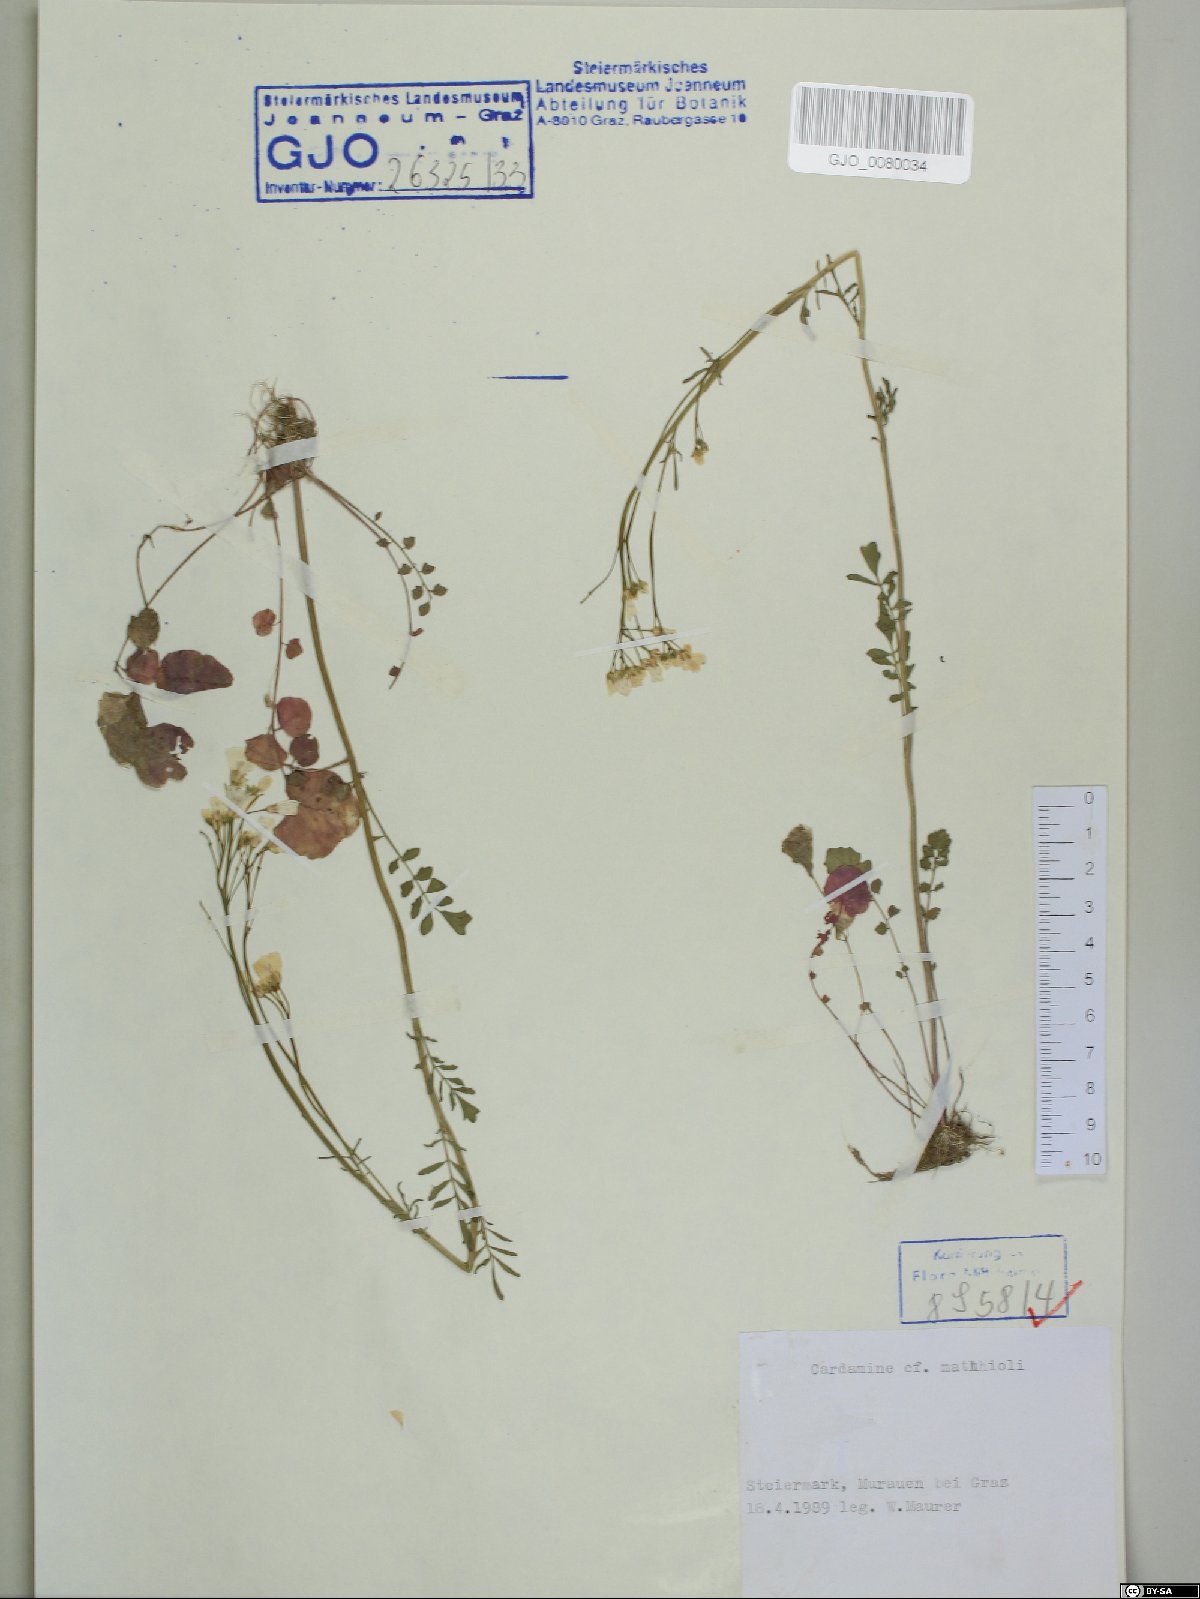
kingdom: Plantae
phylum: Tracheophyta
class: Magnoliopsida
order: Brassicales
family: Brassicaceae
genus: Cardamine
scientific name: Cardamine matthioli
